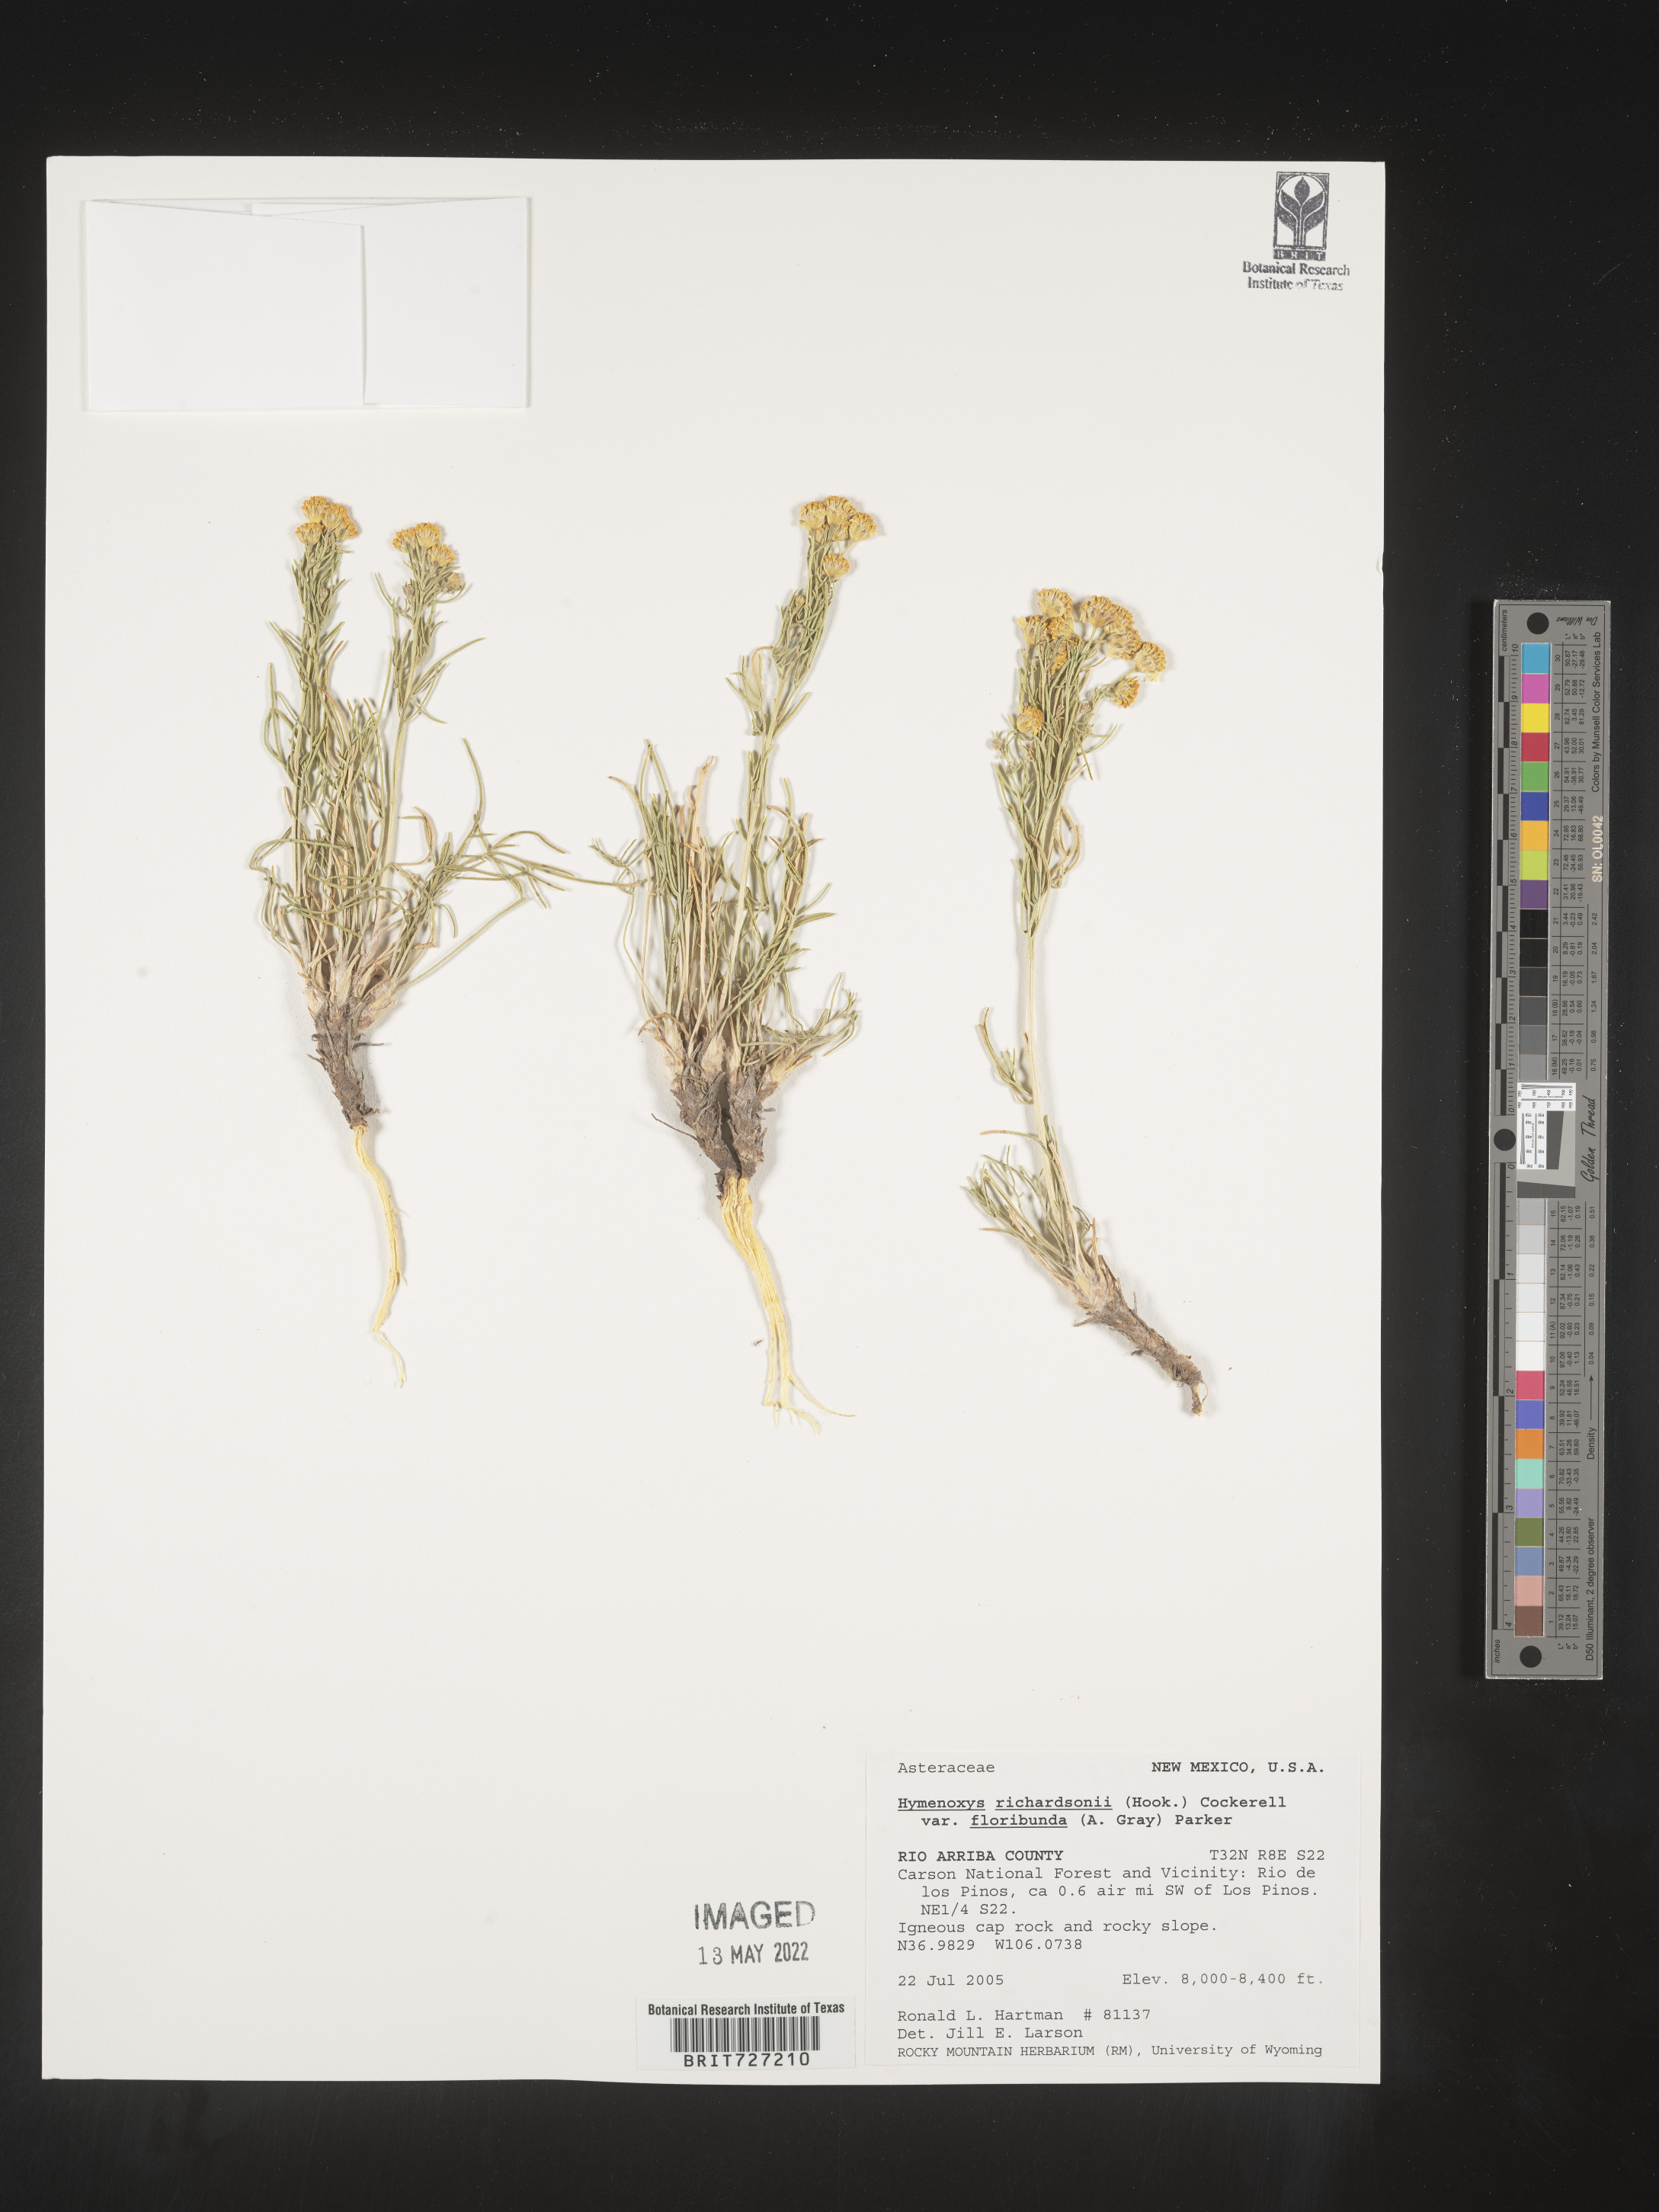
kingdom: Plantae
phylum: Tracheophyta
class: Magnoliopsida
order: Asterales
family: Asteraceae
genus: Hymenoxys
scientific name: Hymenoxys richardsonii
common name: Pingue rubberweed
